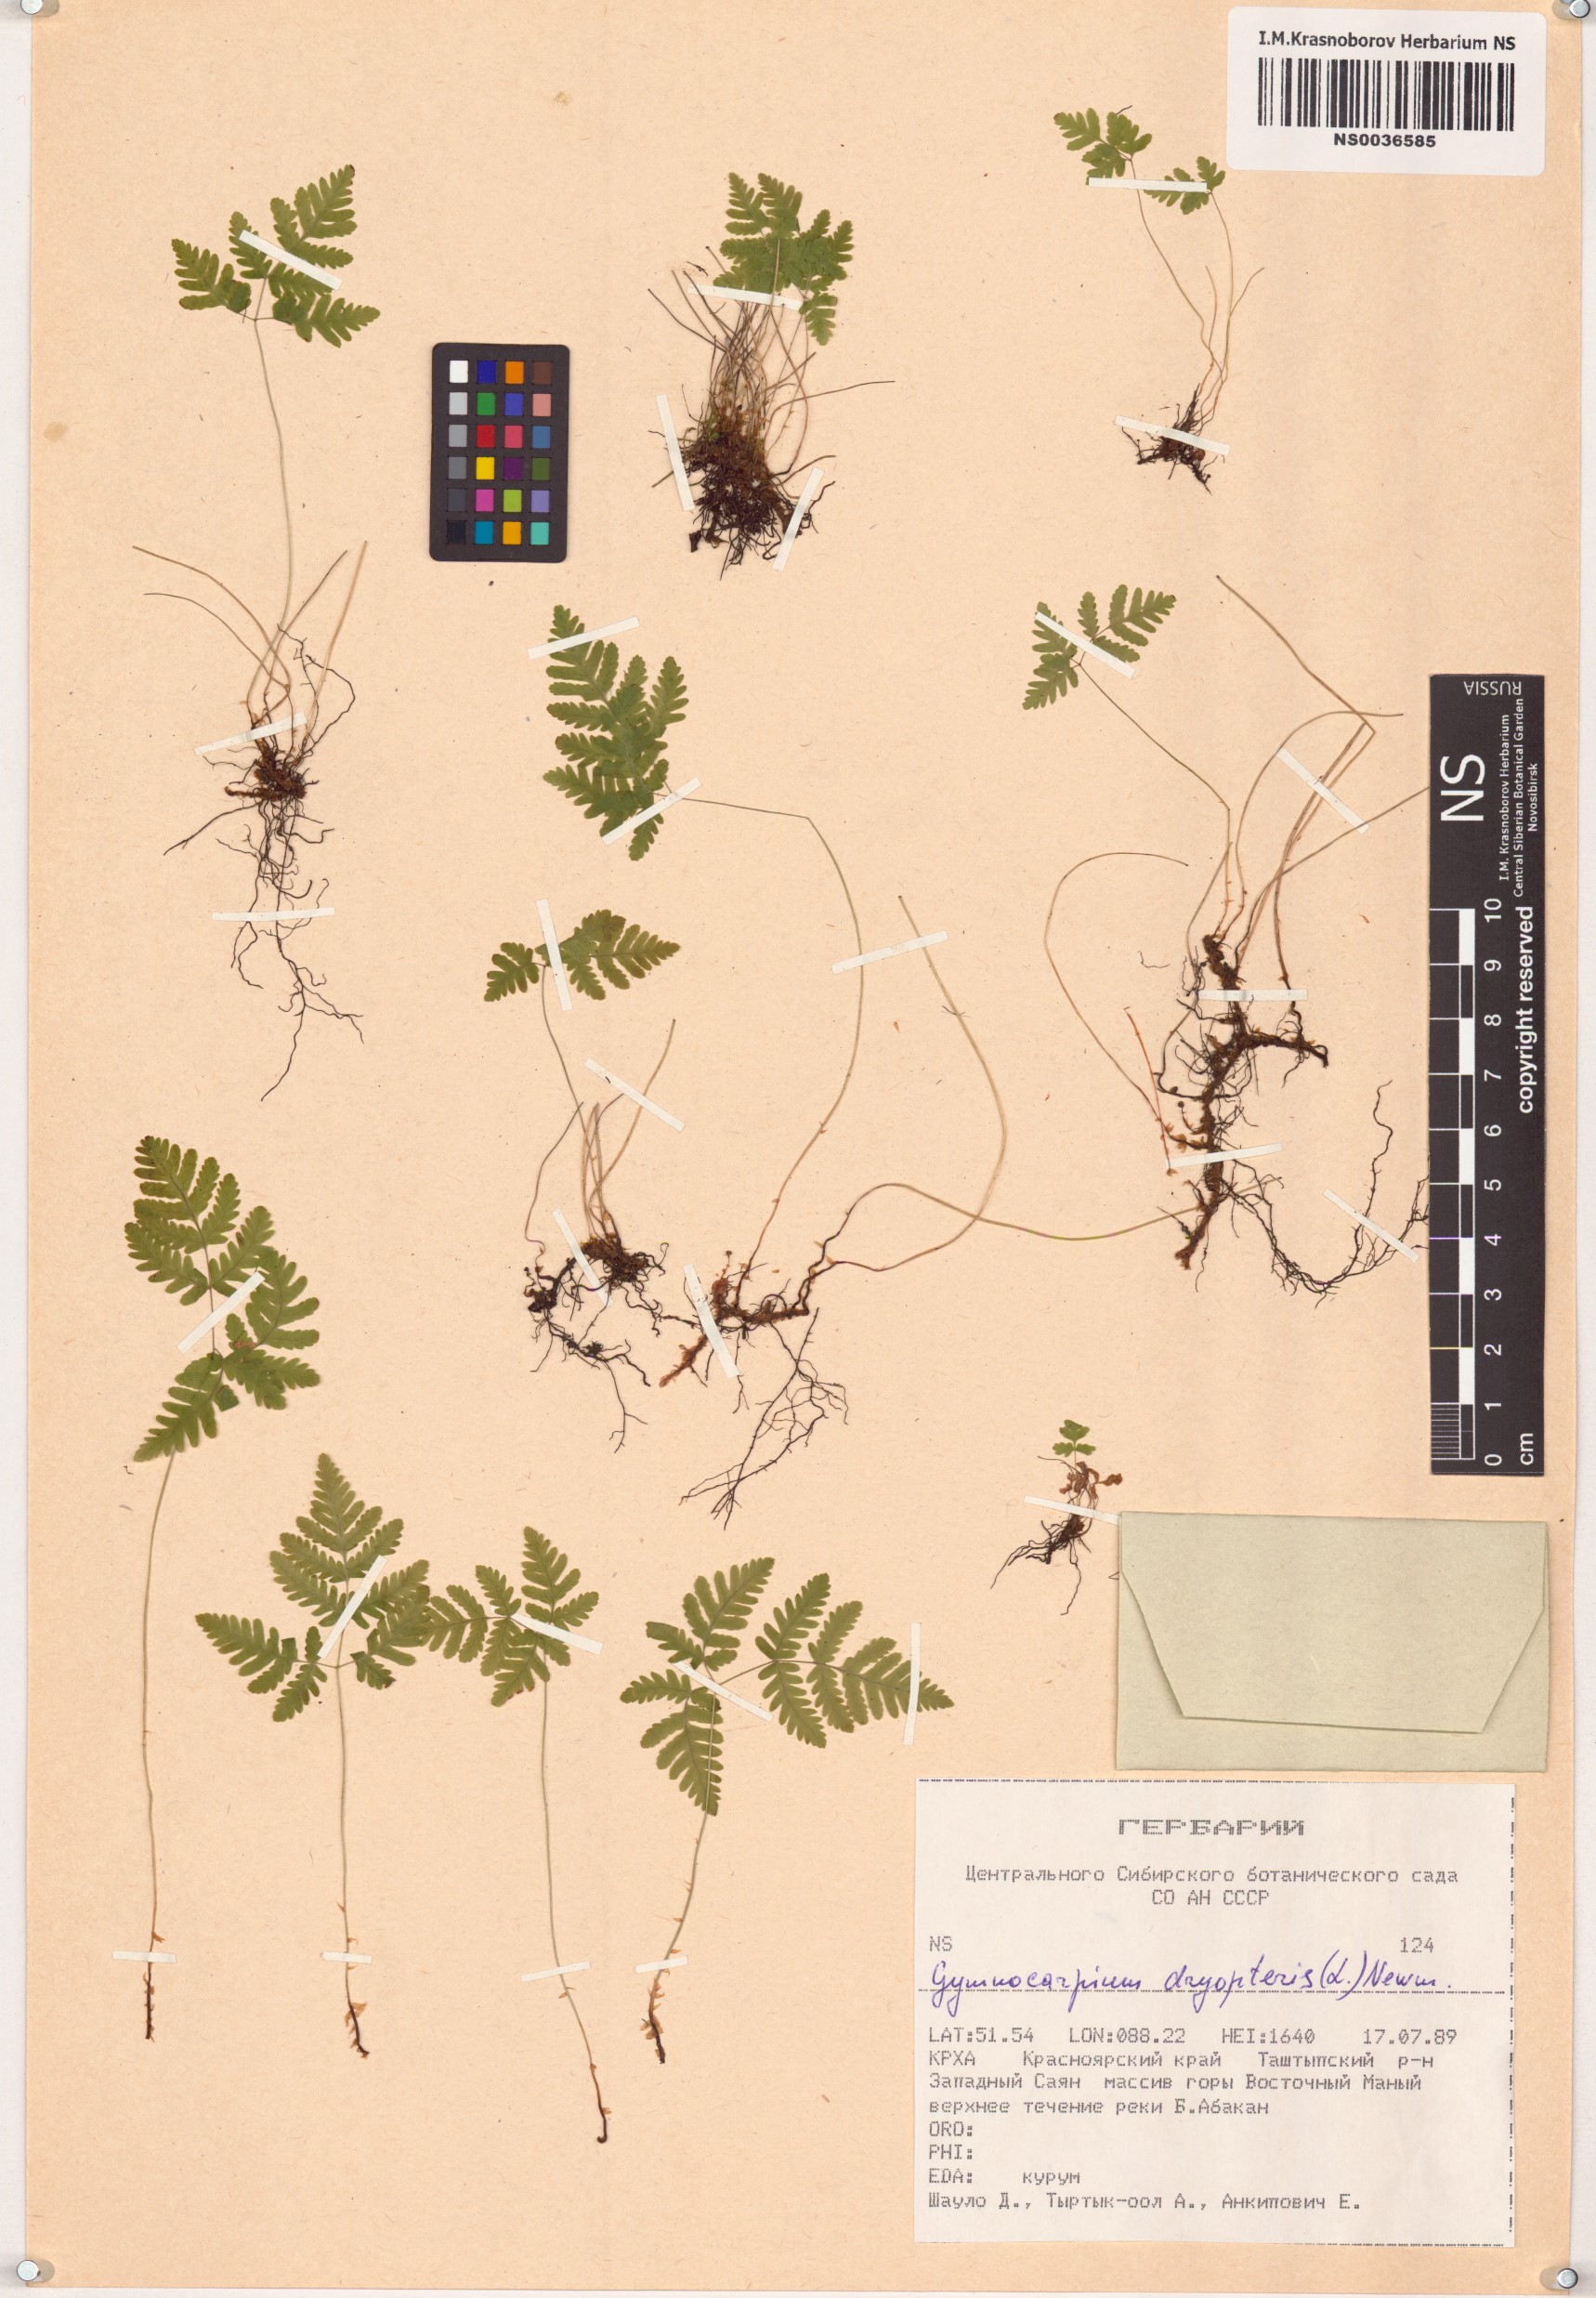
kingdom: Plantae
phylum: Tracheophyta
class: Polypodiopsida
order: Polypodiales
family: Cystopteridaceae
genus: Gymnocarpium
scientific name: Gymnocarpium dryopteris
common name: Oak fern
